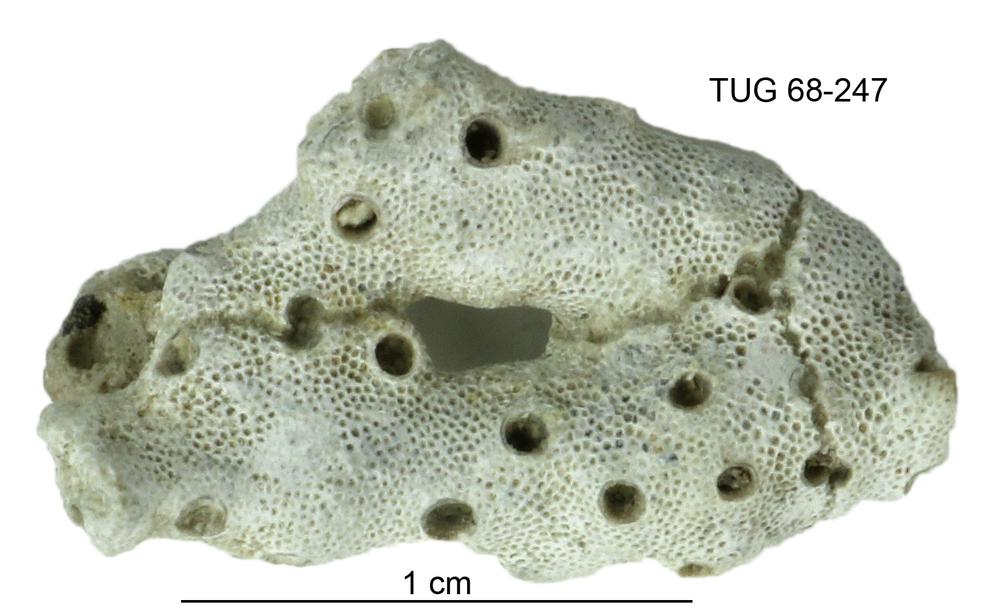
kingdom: Animalia
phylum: Bryozoa
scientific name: Bryozoa
